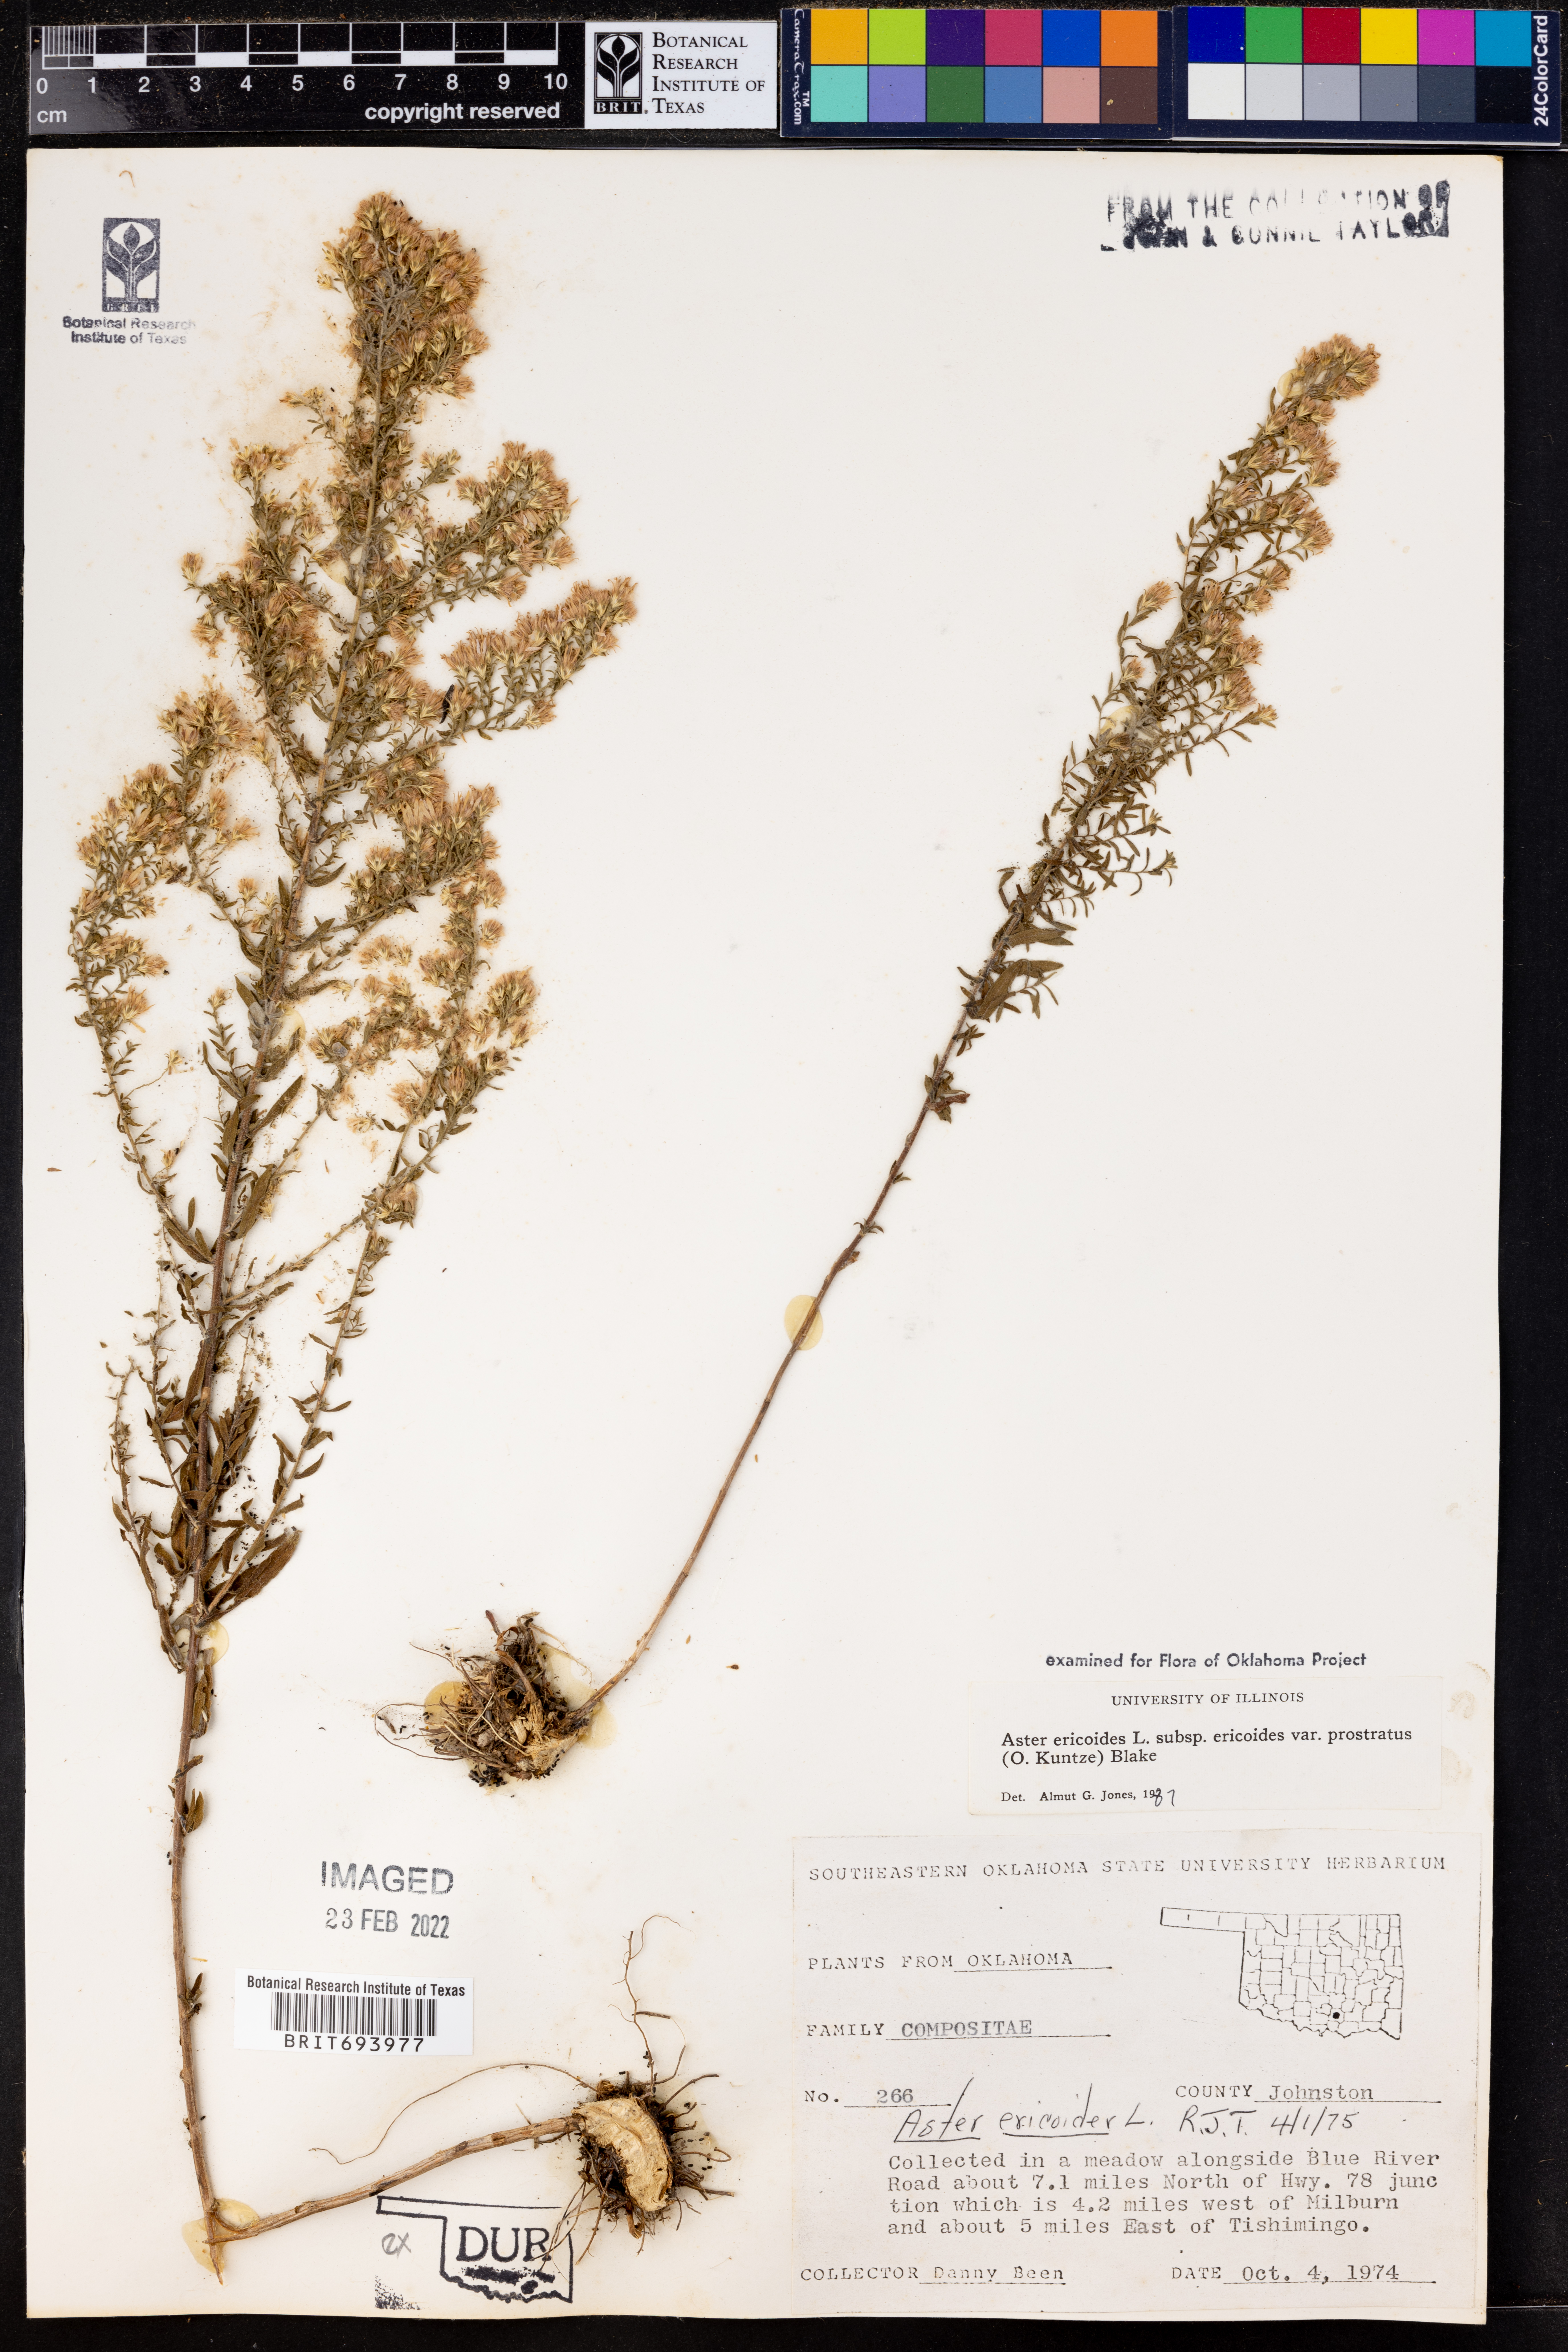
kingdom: Plantae
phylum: Tracheophyta
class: Magnoliopsida
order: Asterales
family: Asteraceae
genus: Symphyotrichum
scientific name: Symphyotrichum ericoides
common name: Heath aster
